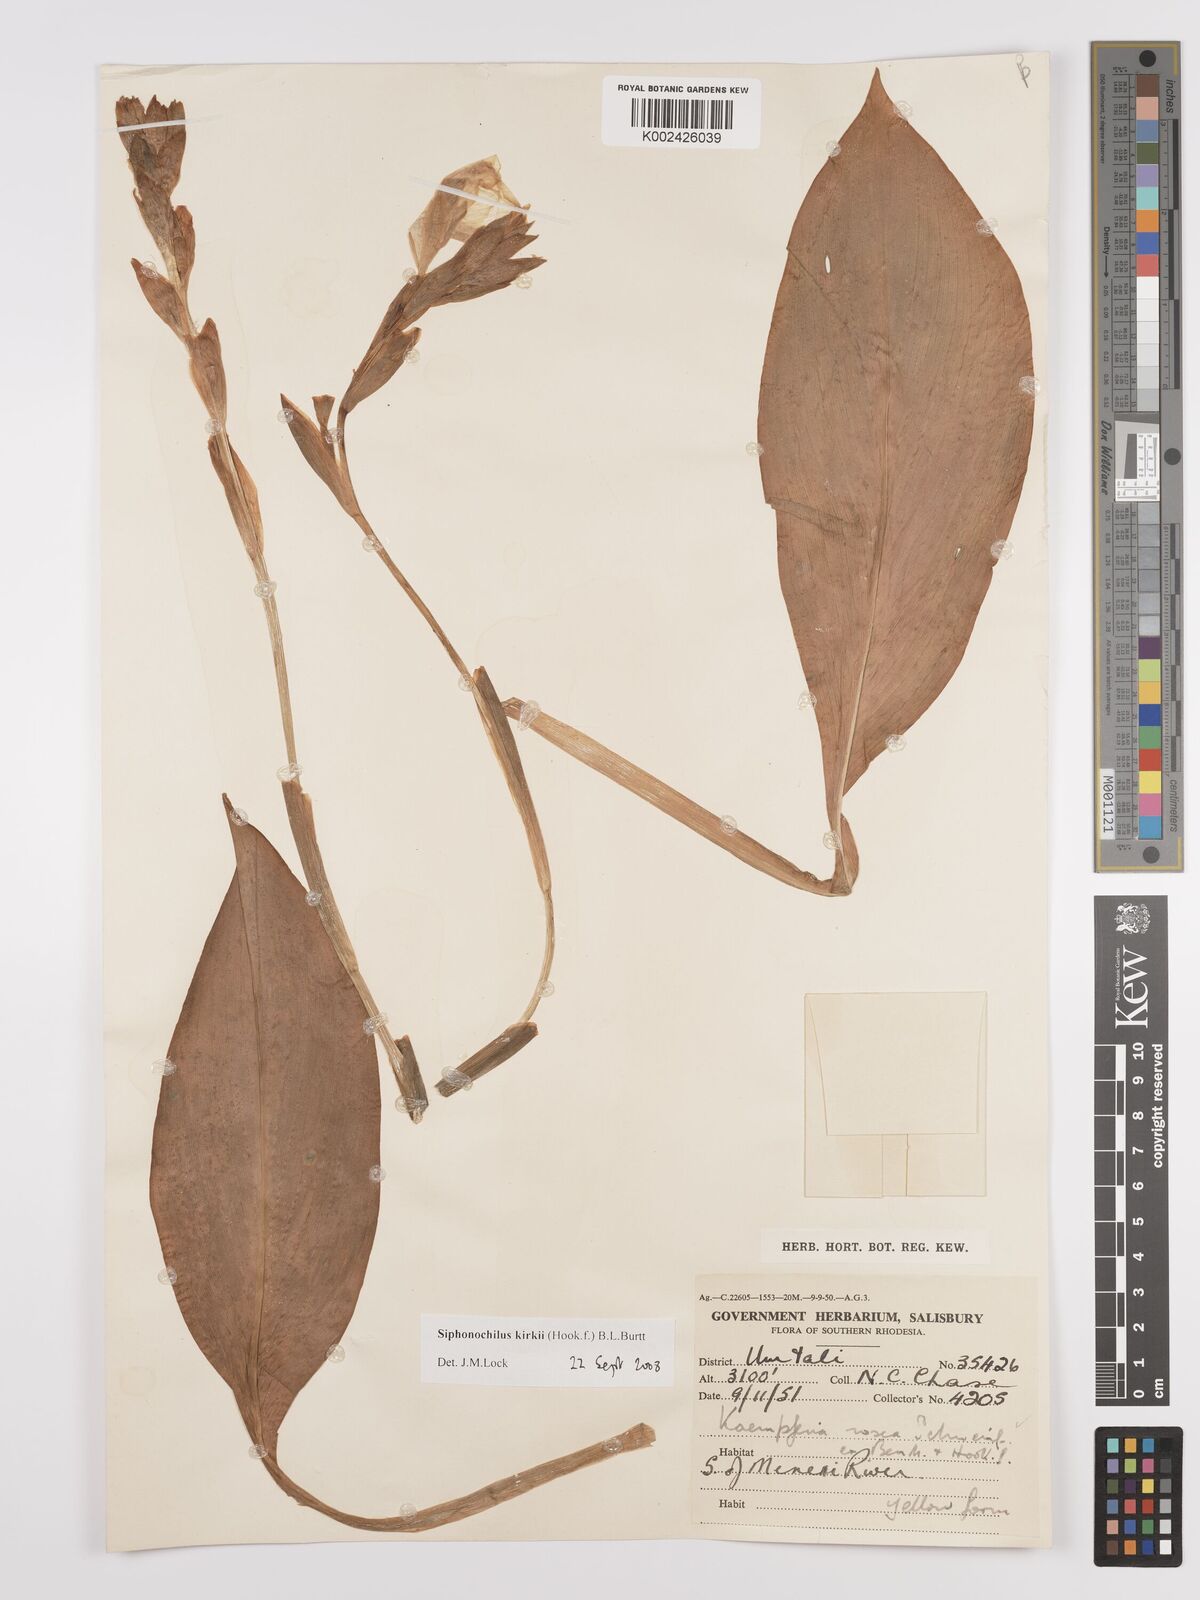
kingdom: Plantae
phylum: Tracheophyta
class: Liliopsida
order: Zingiberales
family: Zingiberaceae
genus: Siphonochilus
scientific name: Siphonochilus kirkii
